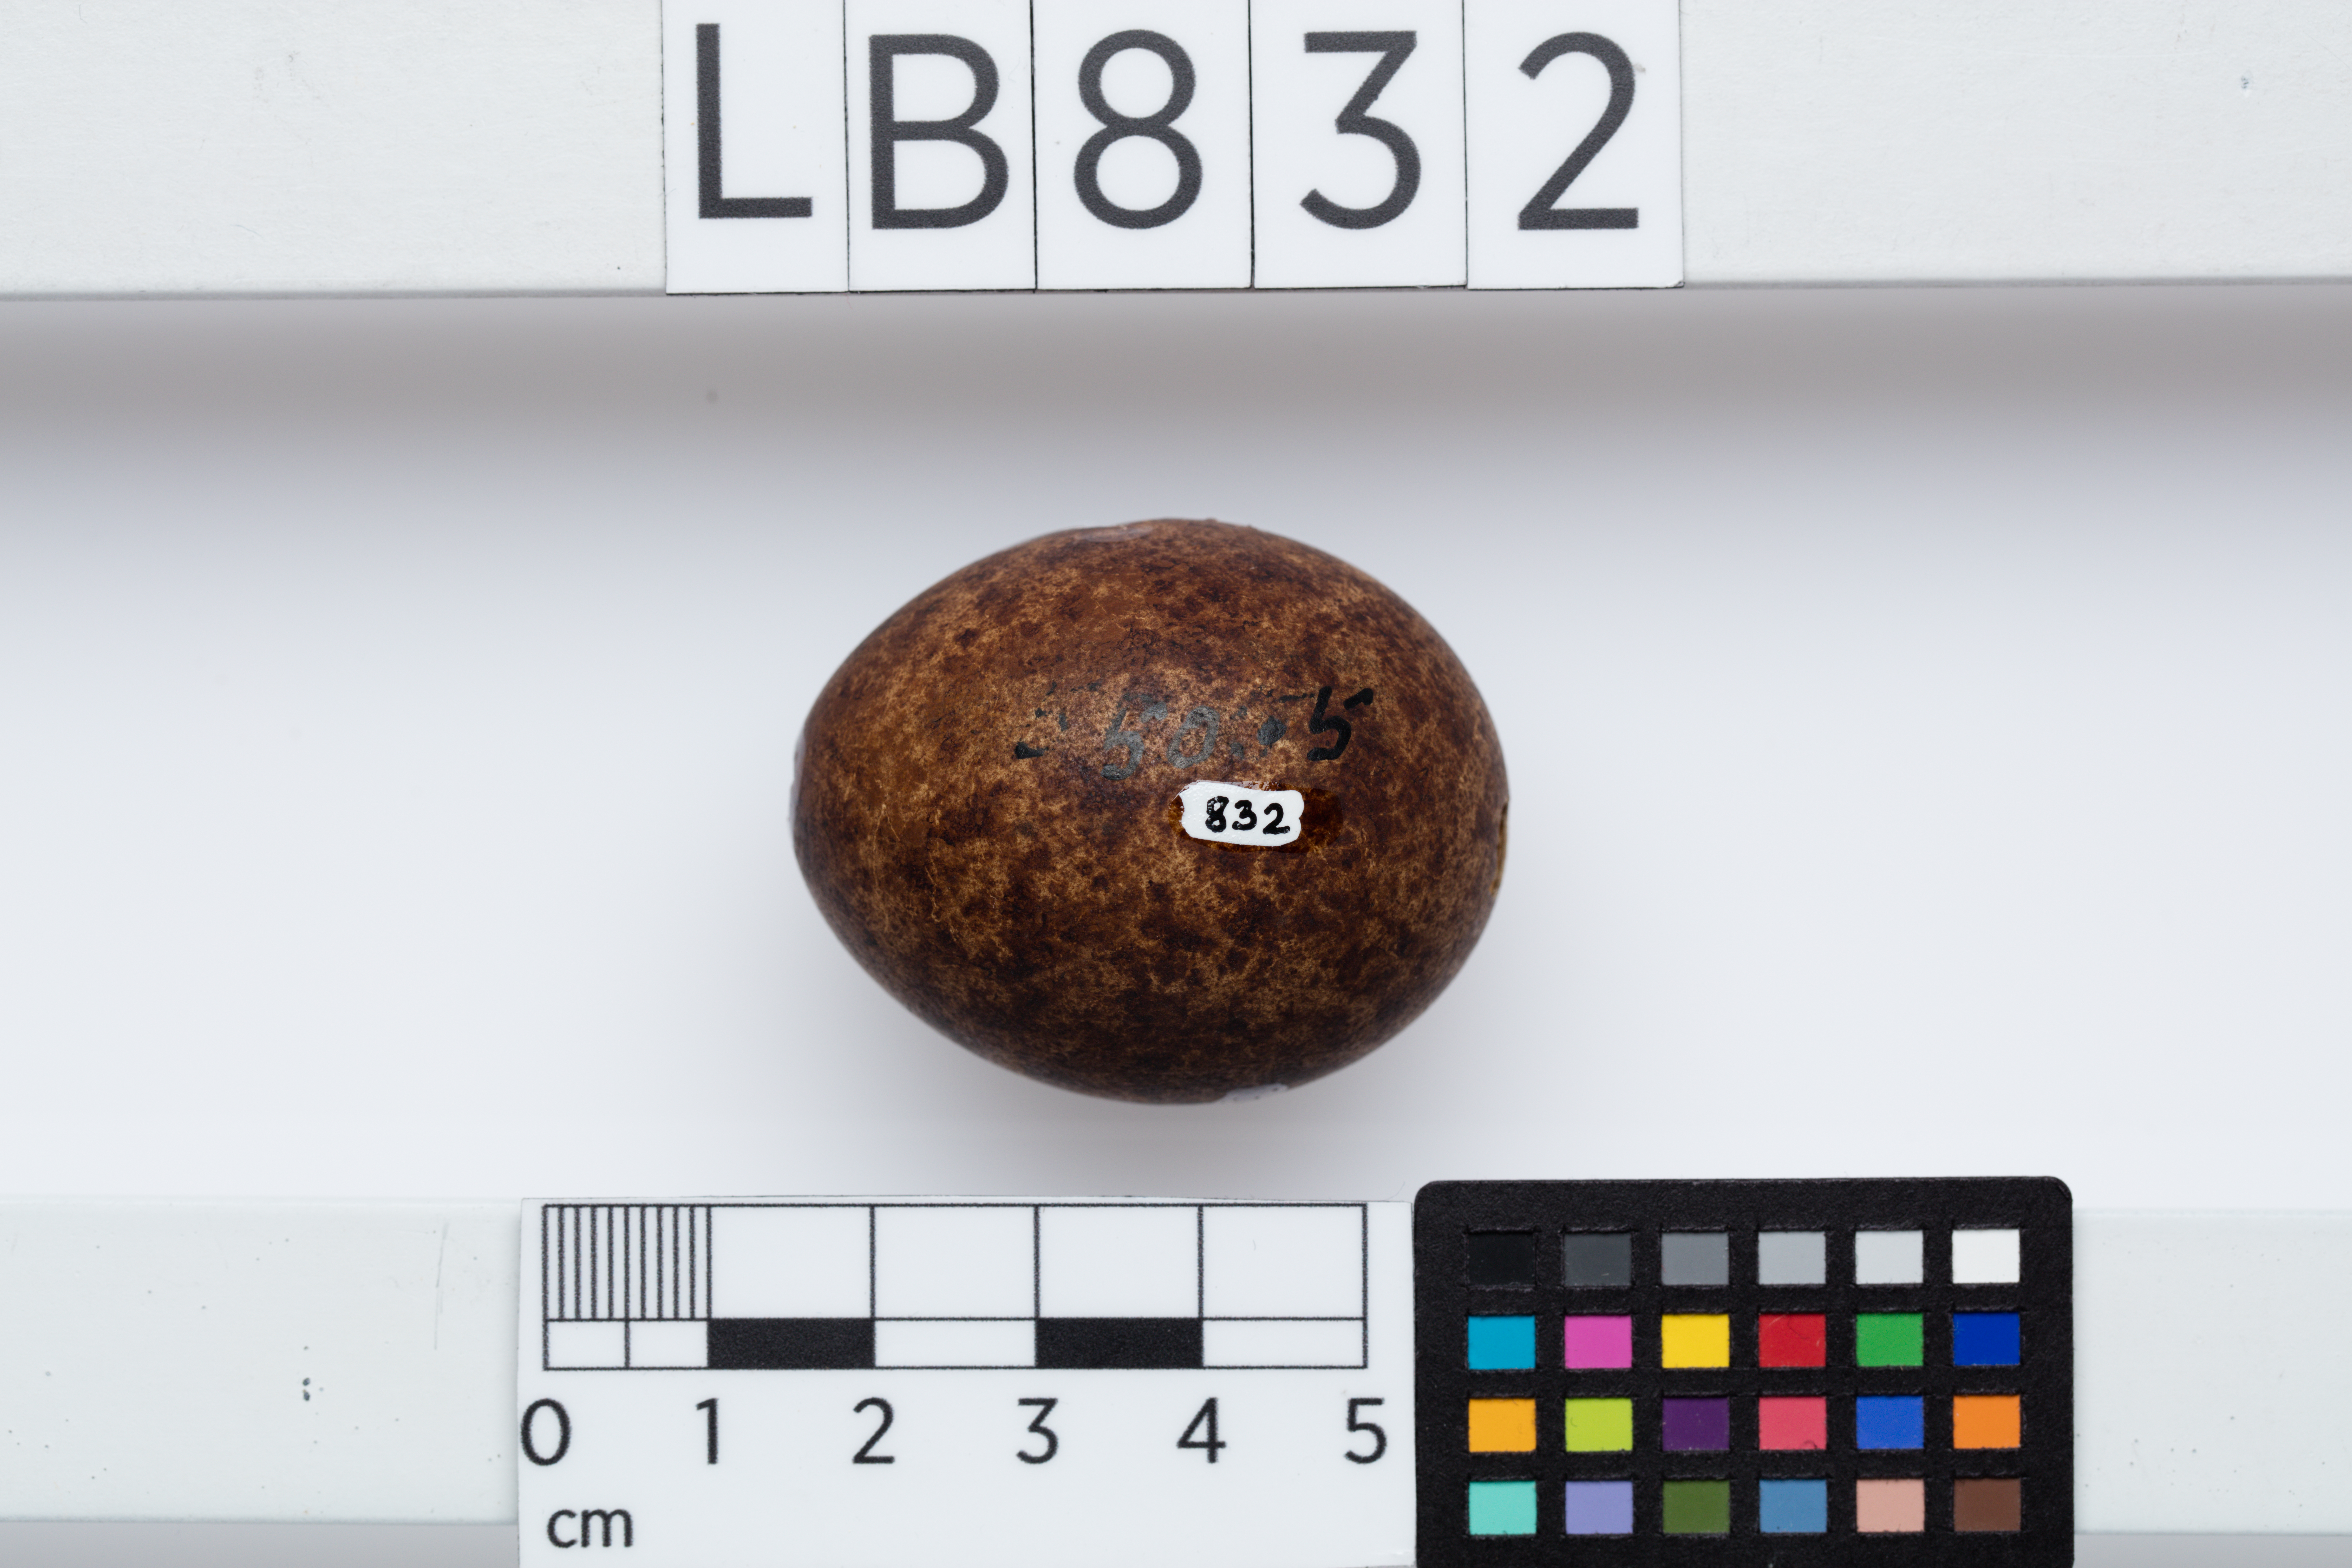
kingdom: Animalia
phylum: Chordata
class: Aves
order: Falconiformes
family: Falconidae
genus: Falco
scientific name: Falco novaeseelandiae
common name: New zealand falcon
